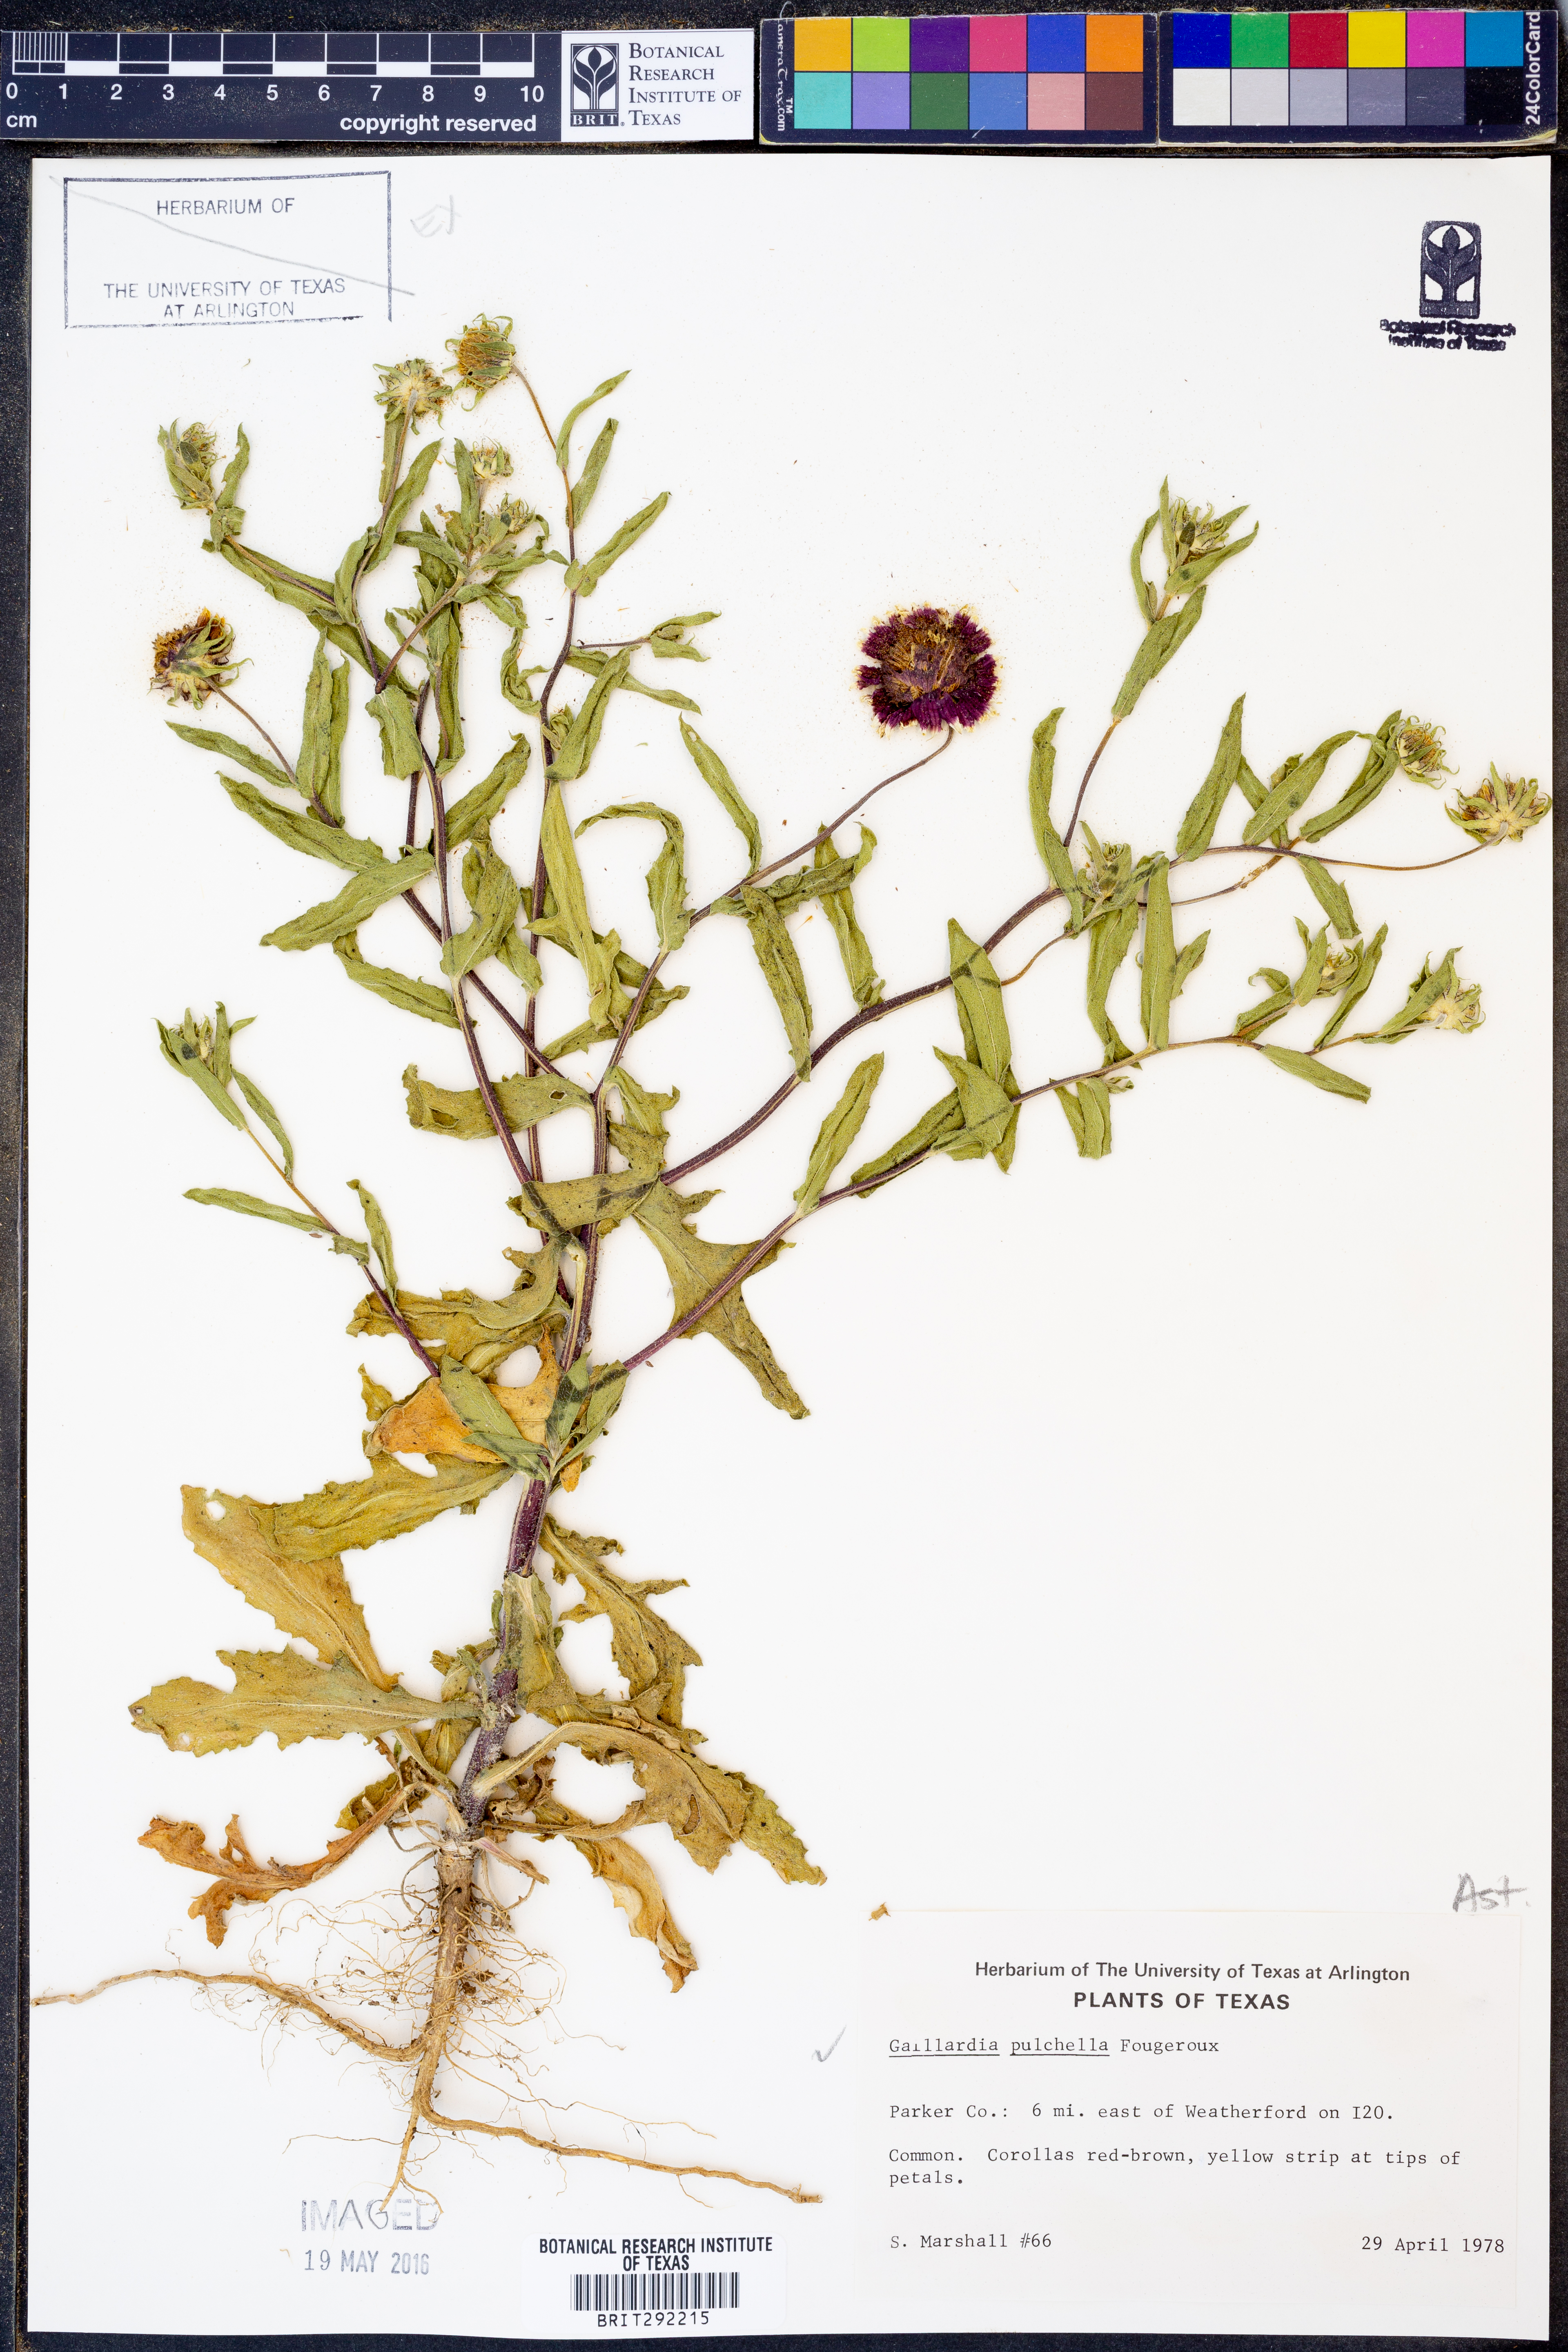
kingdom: Plantae
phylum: Tracheophyta
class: Magnoliopsida
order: Asterales
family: Asteraceae
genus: Gaillardia
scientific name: Gaillardia pulchella
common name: Firewheel
